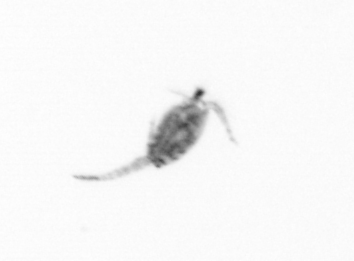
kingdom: Animalia
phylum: Arthropoda
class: Copepoda
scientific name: Copepoda
